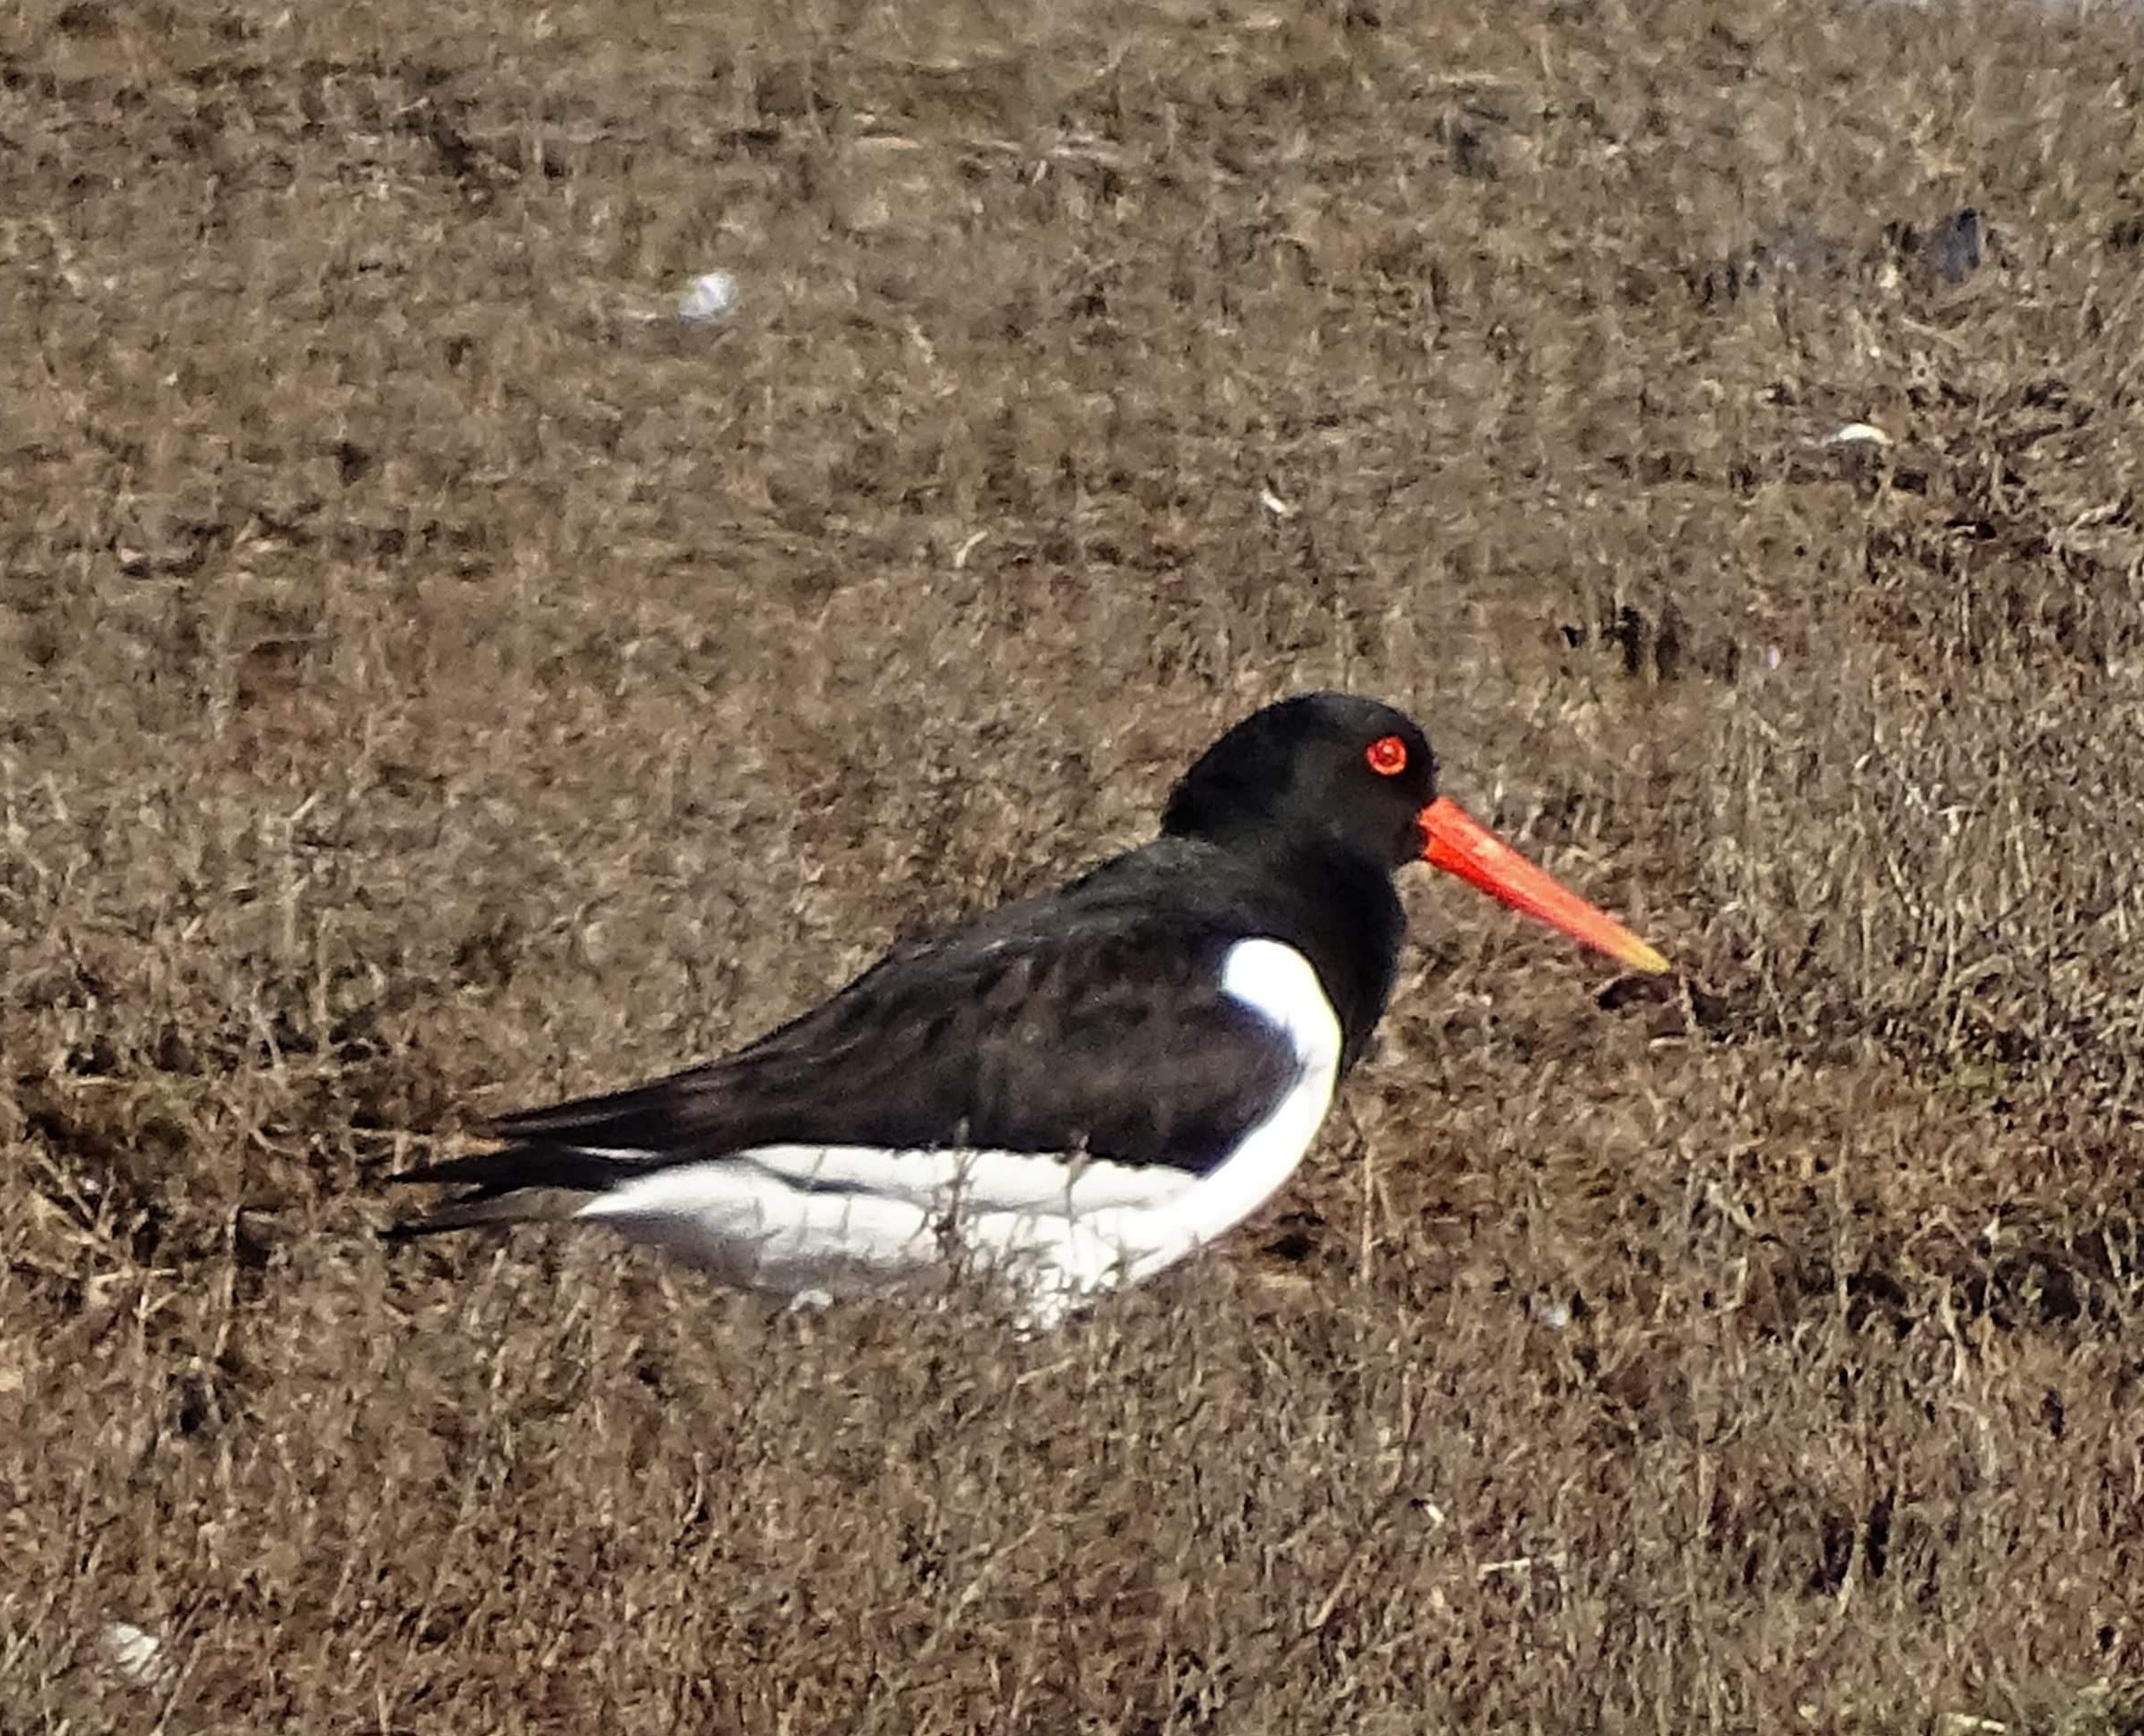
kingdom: Animalia
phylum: Chordata
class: Aves
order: Charadriiformes
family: Haematopodidae
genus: Haematopus
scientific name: Haematopus ostralegus
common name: Strandskade
